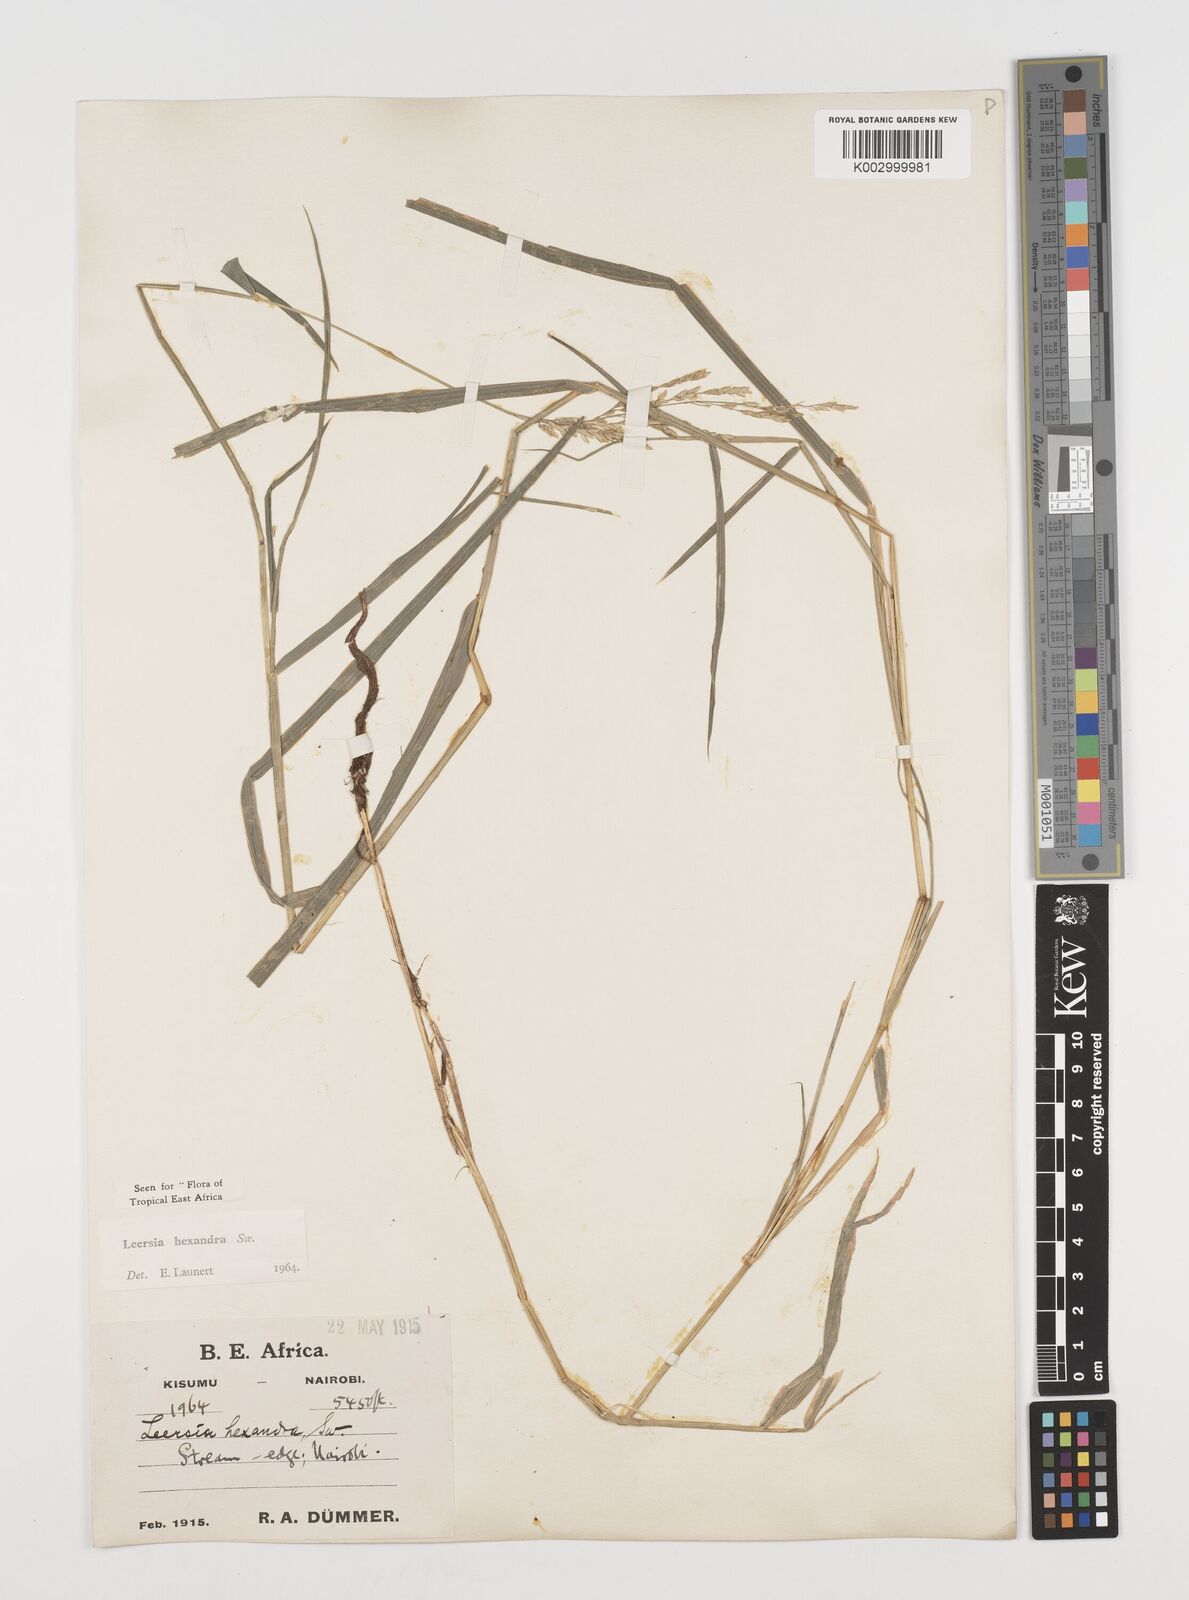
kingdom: Plantae
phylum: Tracheophyta
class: Liliopsida
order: Poales
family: Poaceae
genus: Leersia
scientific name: Leersia hexandra
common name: Southern cut grass
